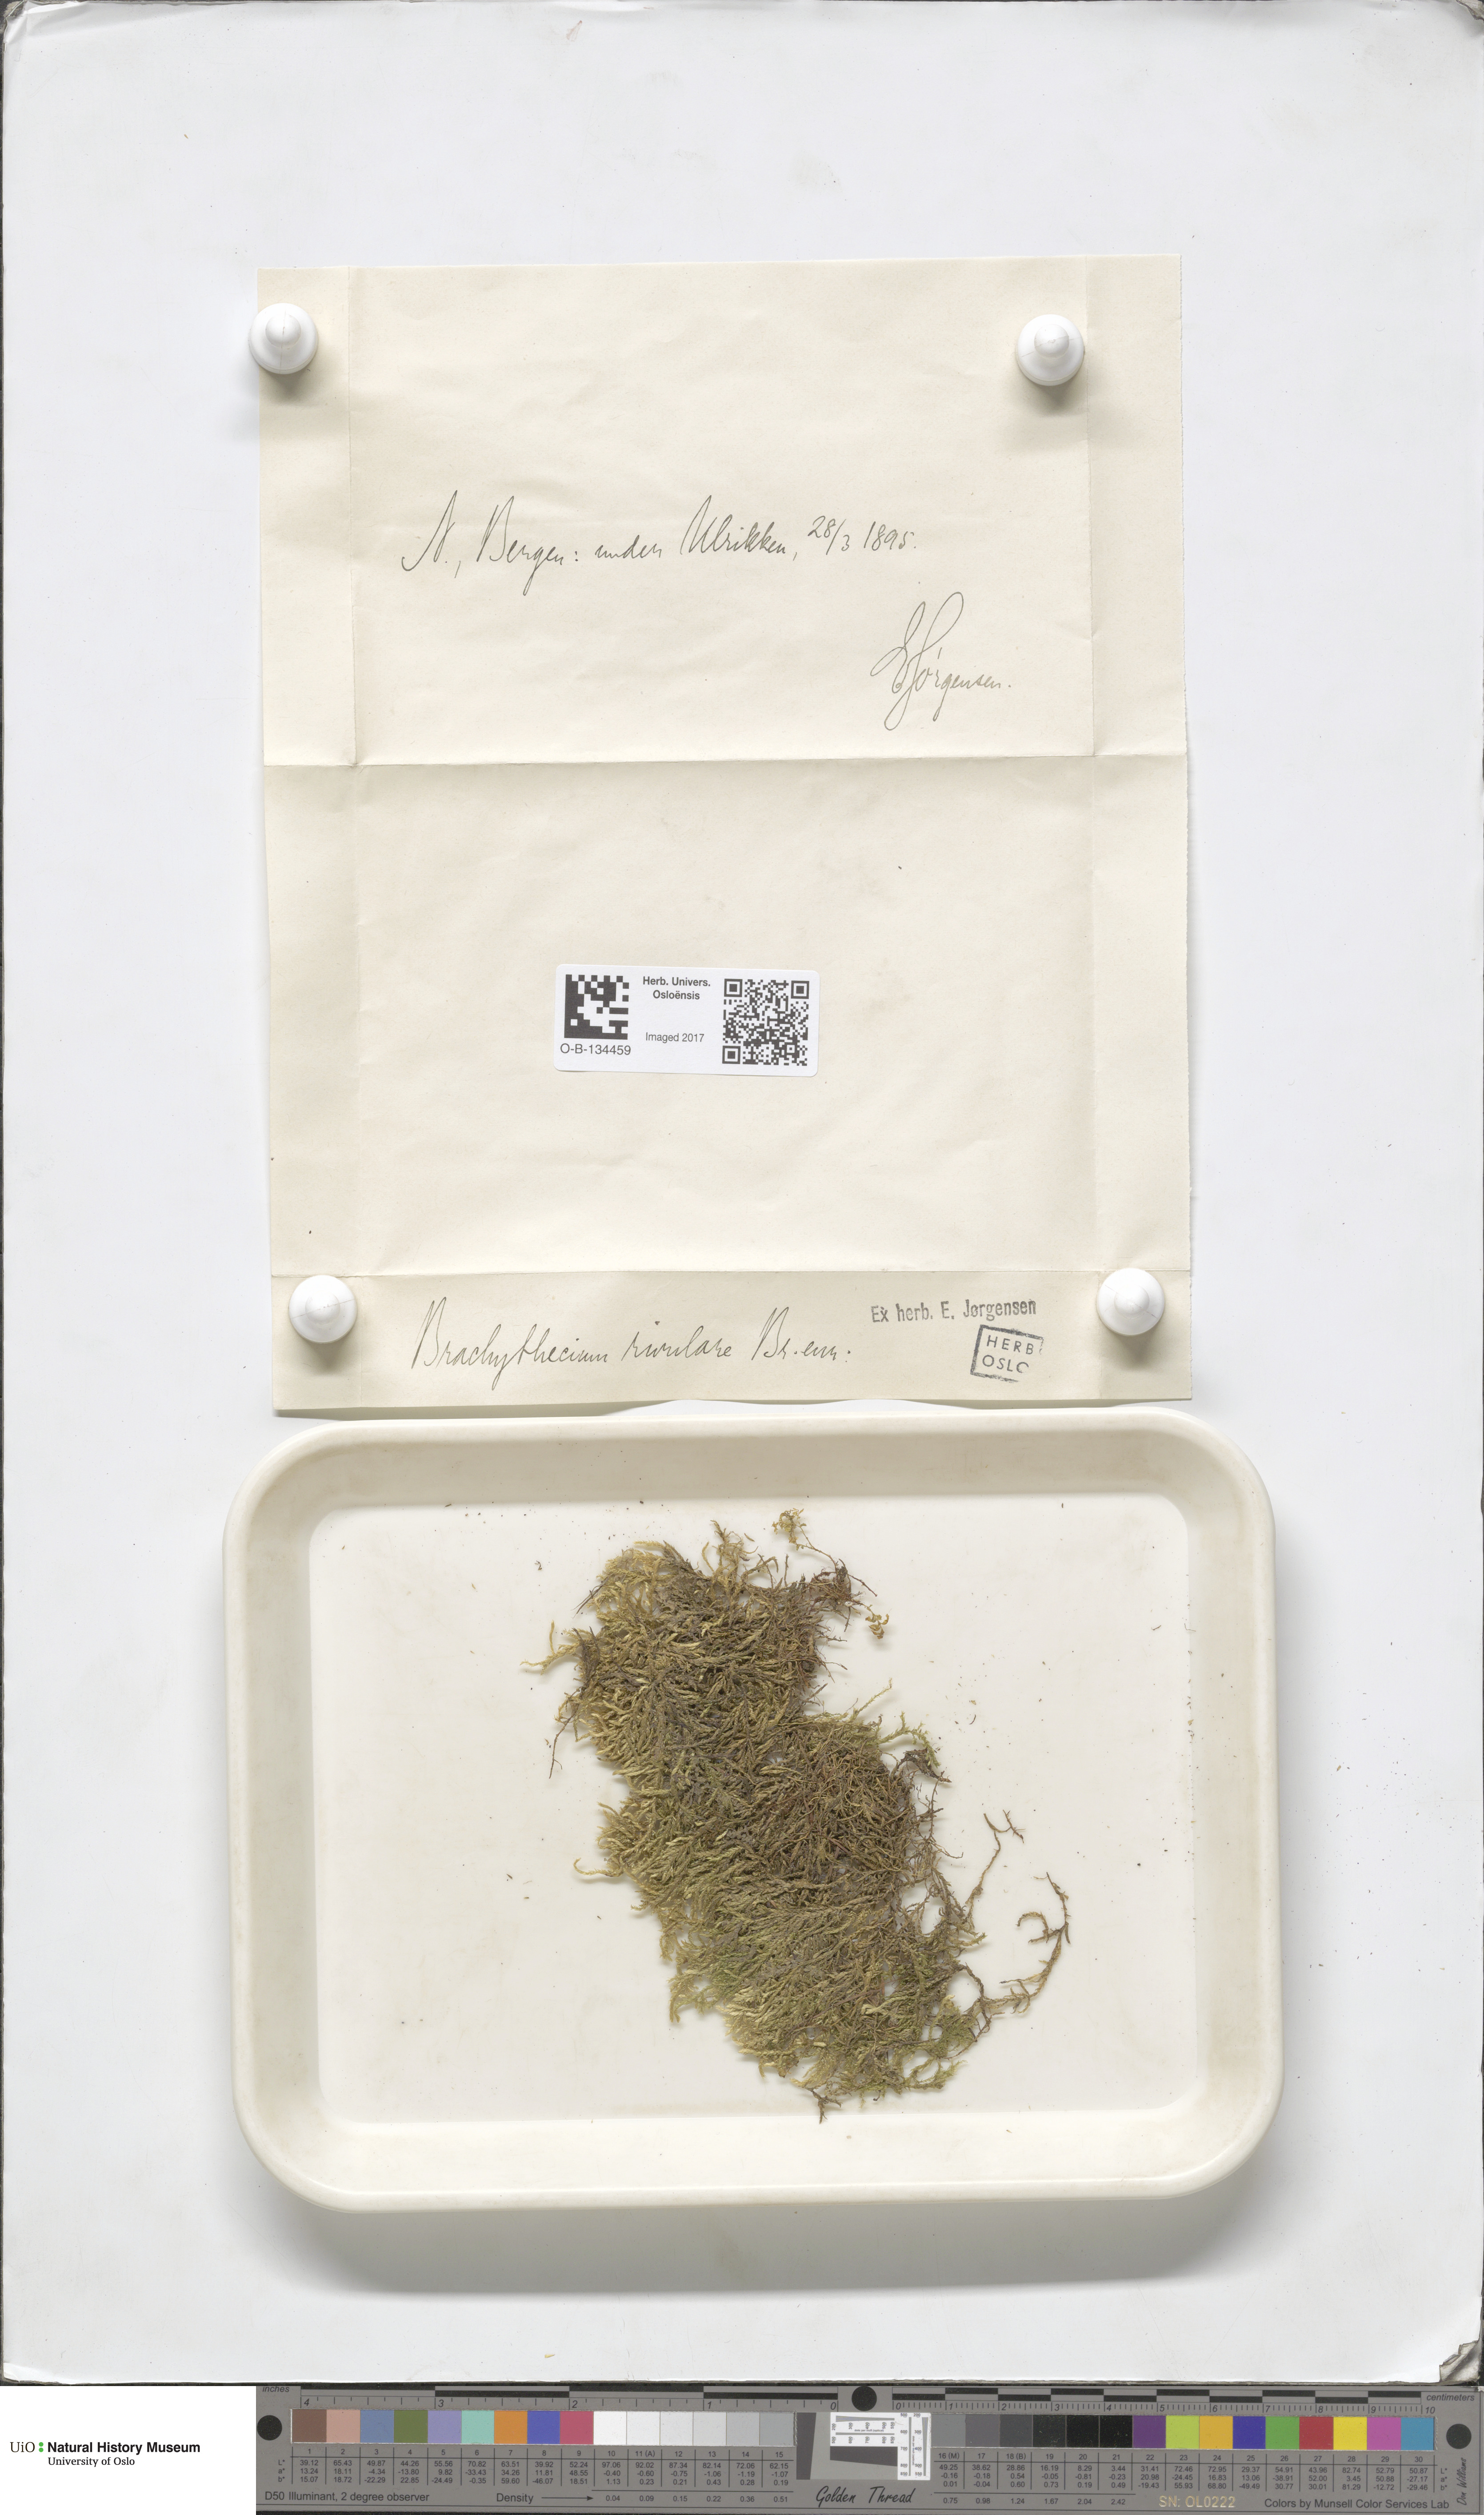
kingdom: Plantae
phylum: Bryophyta
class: Bryopsida
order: Hypnales
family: Brachytheciaceae
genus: Brachythecium
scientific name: Brachythecium rivulare
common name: River ragged moss
